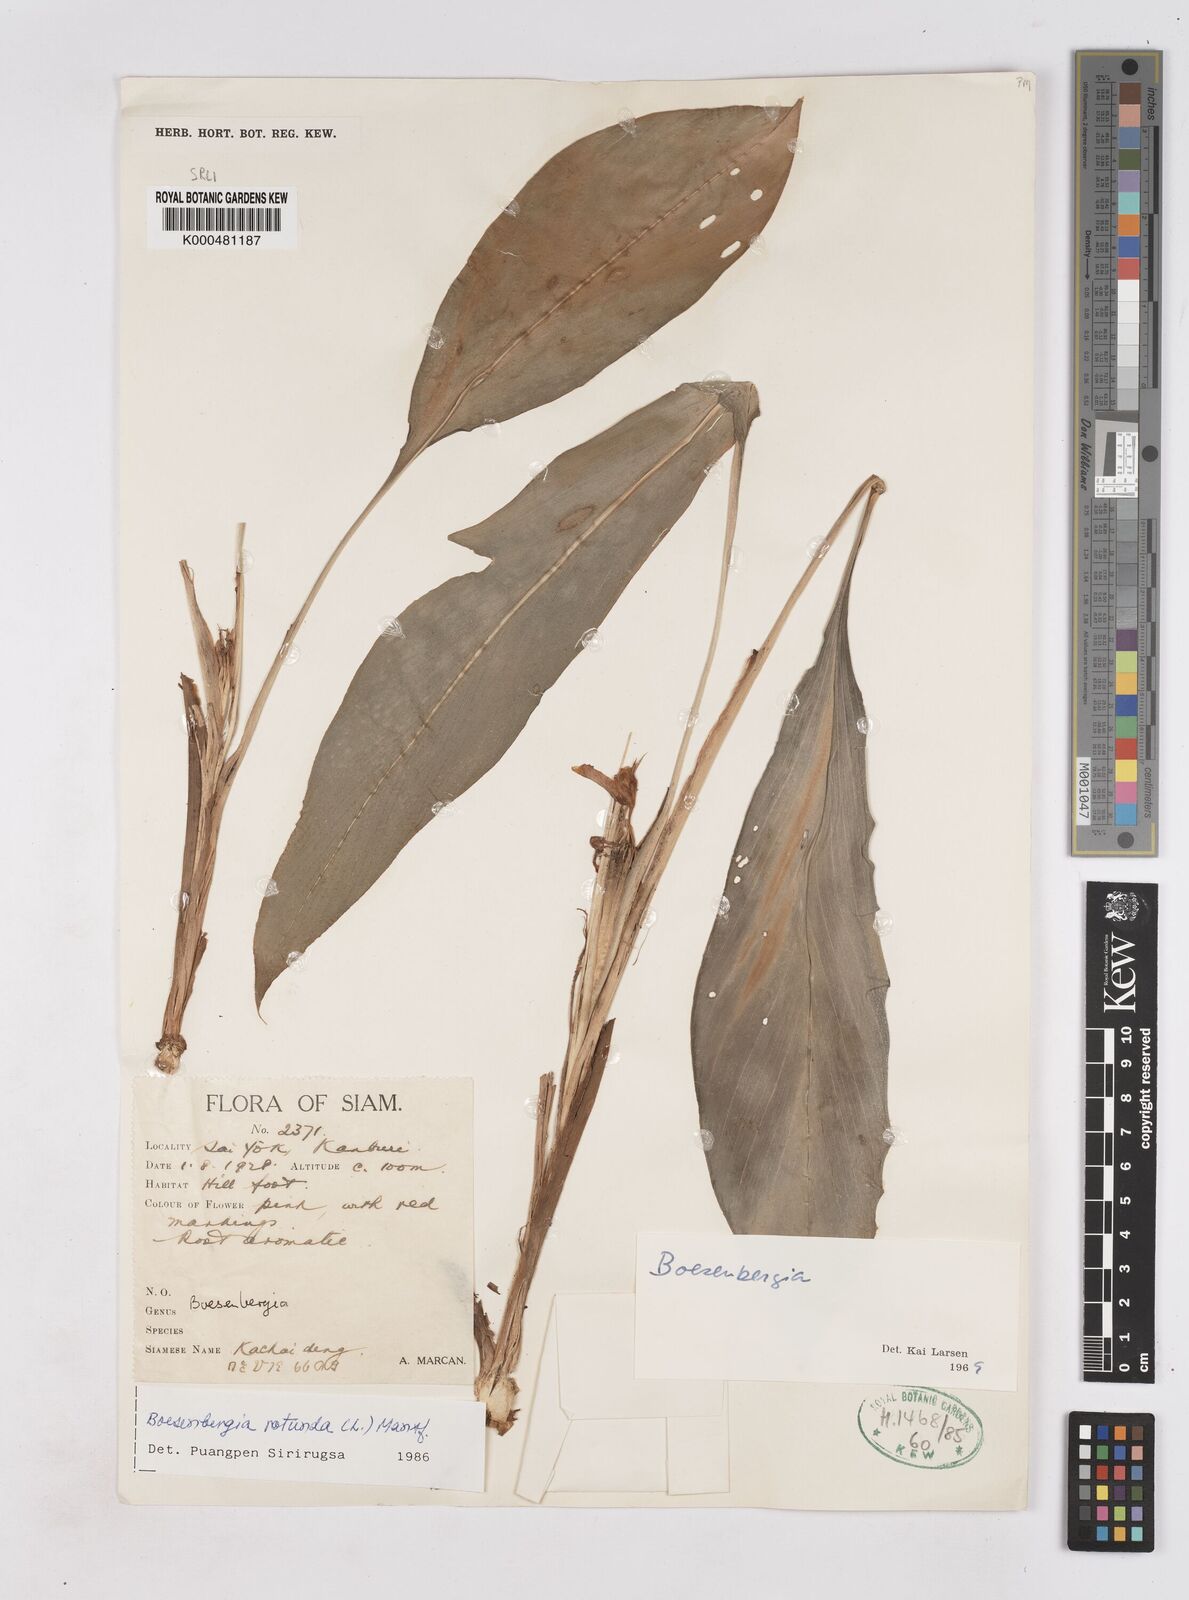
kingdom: Plantae
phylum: Tracheophyta
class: Liliopsida
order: Zingiberales
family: Zingiberaceae
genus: Boesenbergia
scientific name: Boesenbergia rotunda
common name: Chinese ginger
